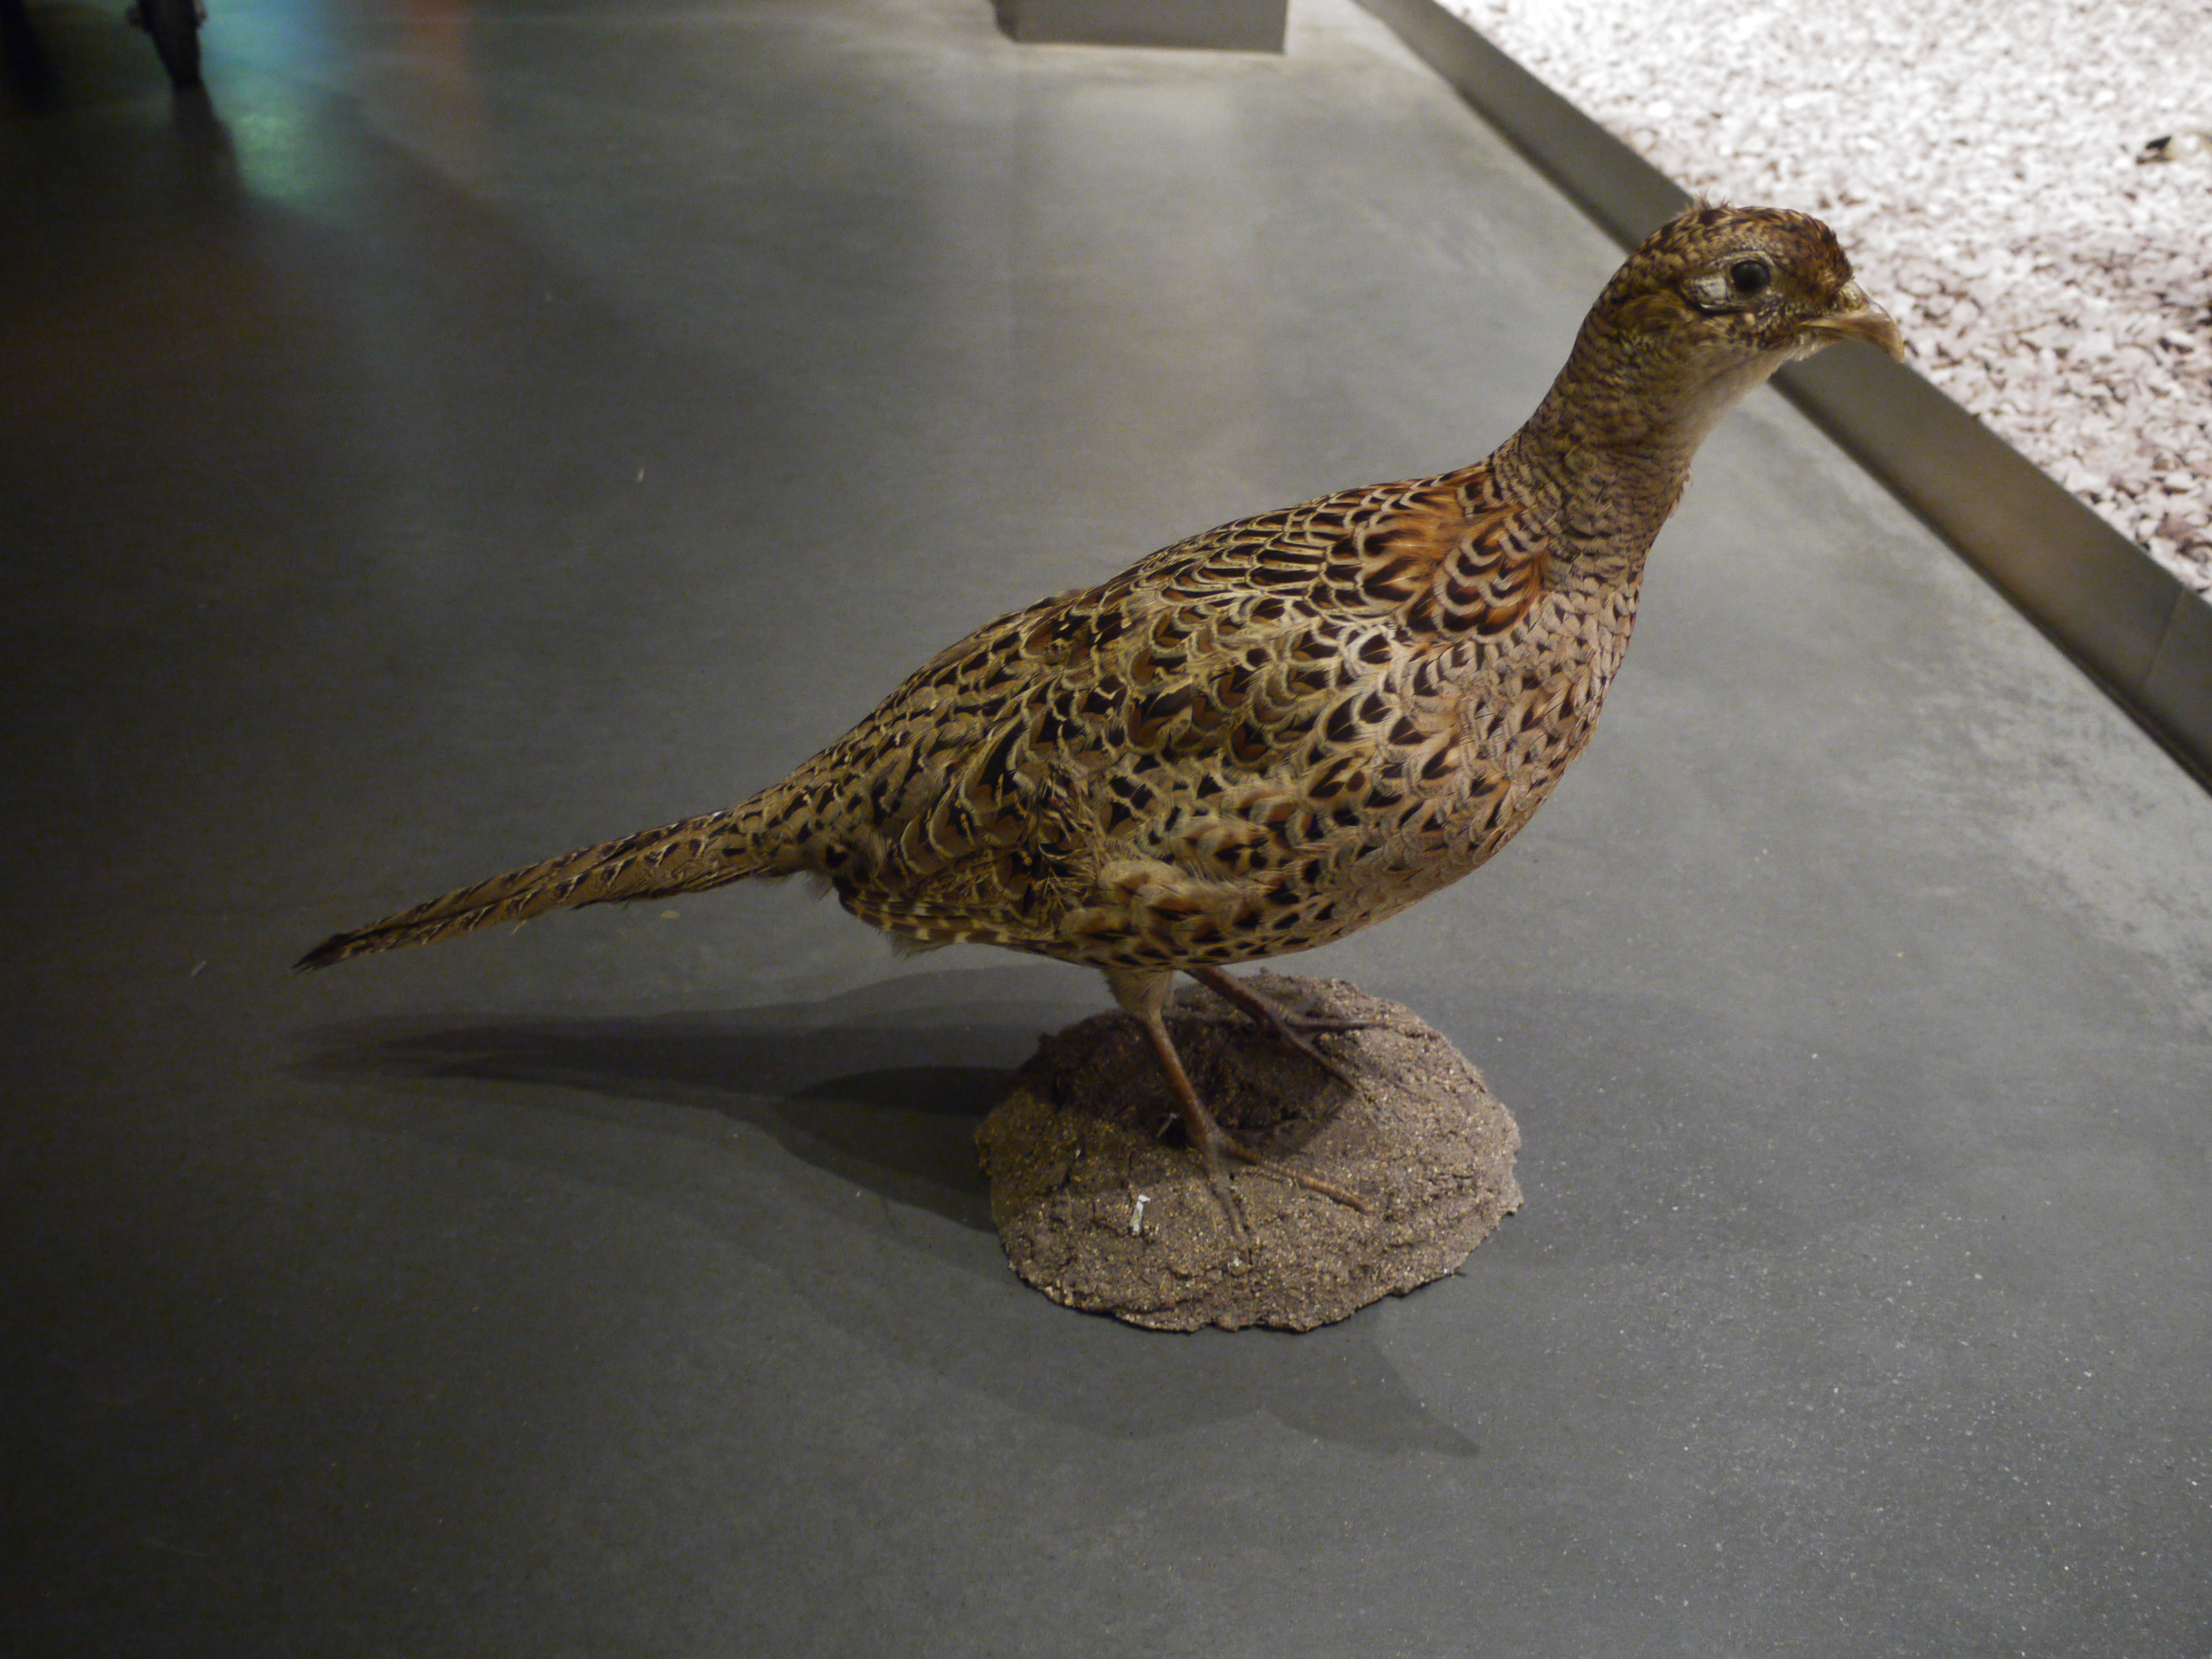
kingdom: Animalia
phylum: Chordata
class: Aves
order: Galliformes
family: Phasianidae
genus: Phasianus
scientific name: Phasianus colchicus
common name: Common pheasant
